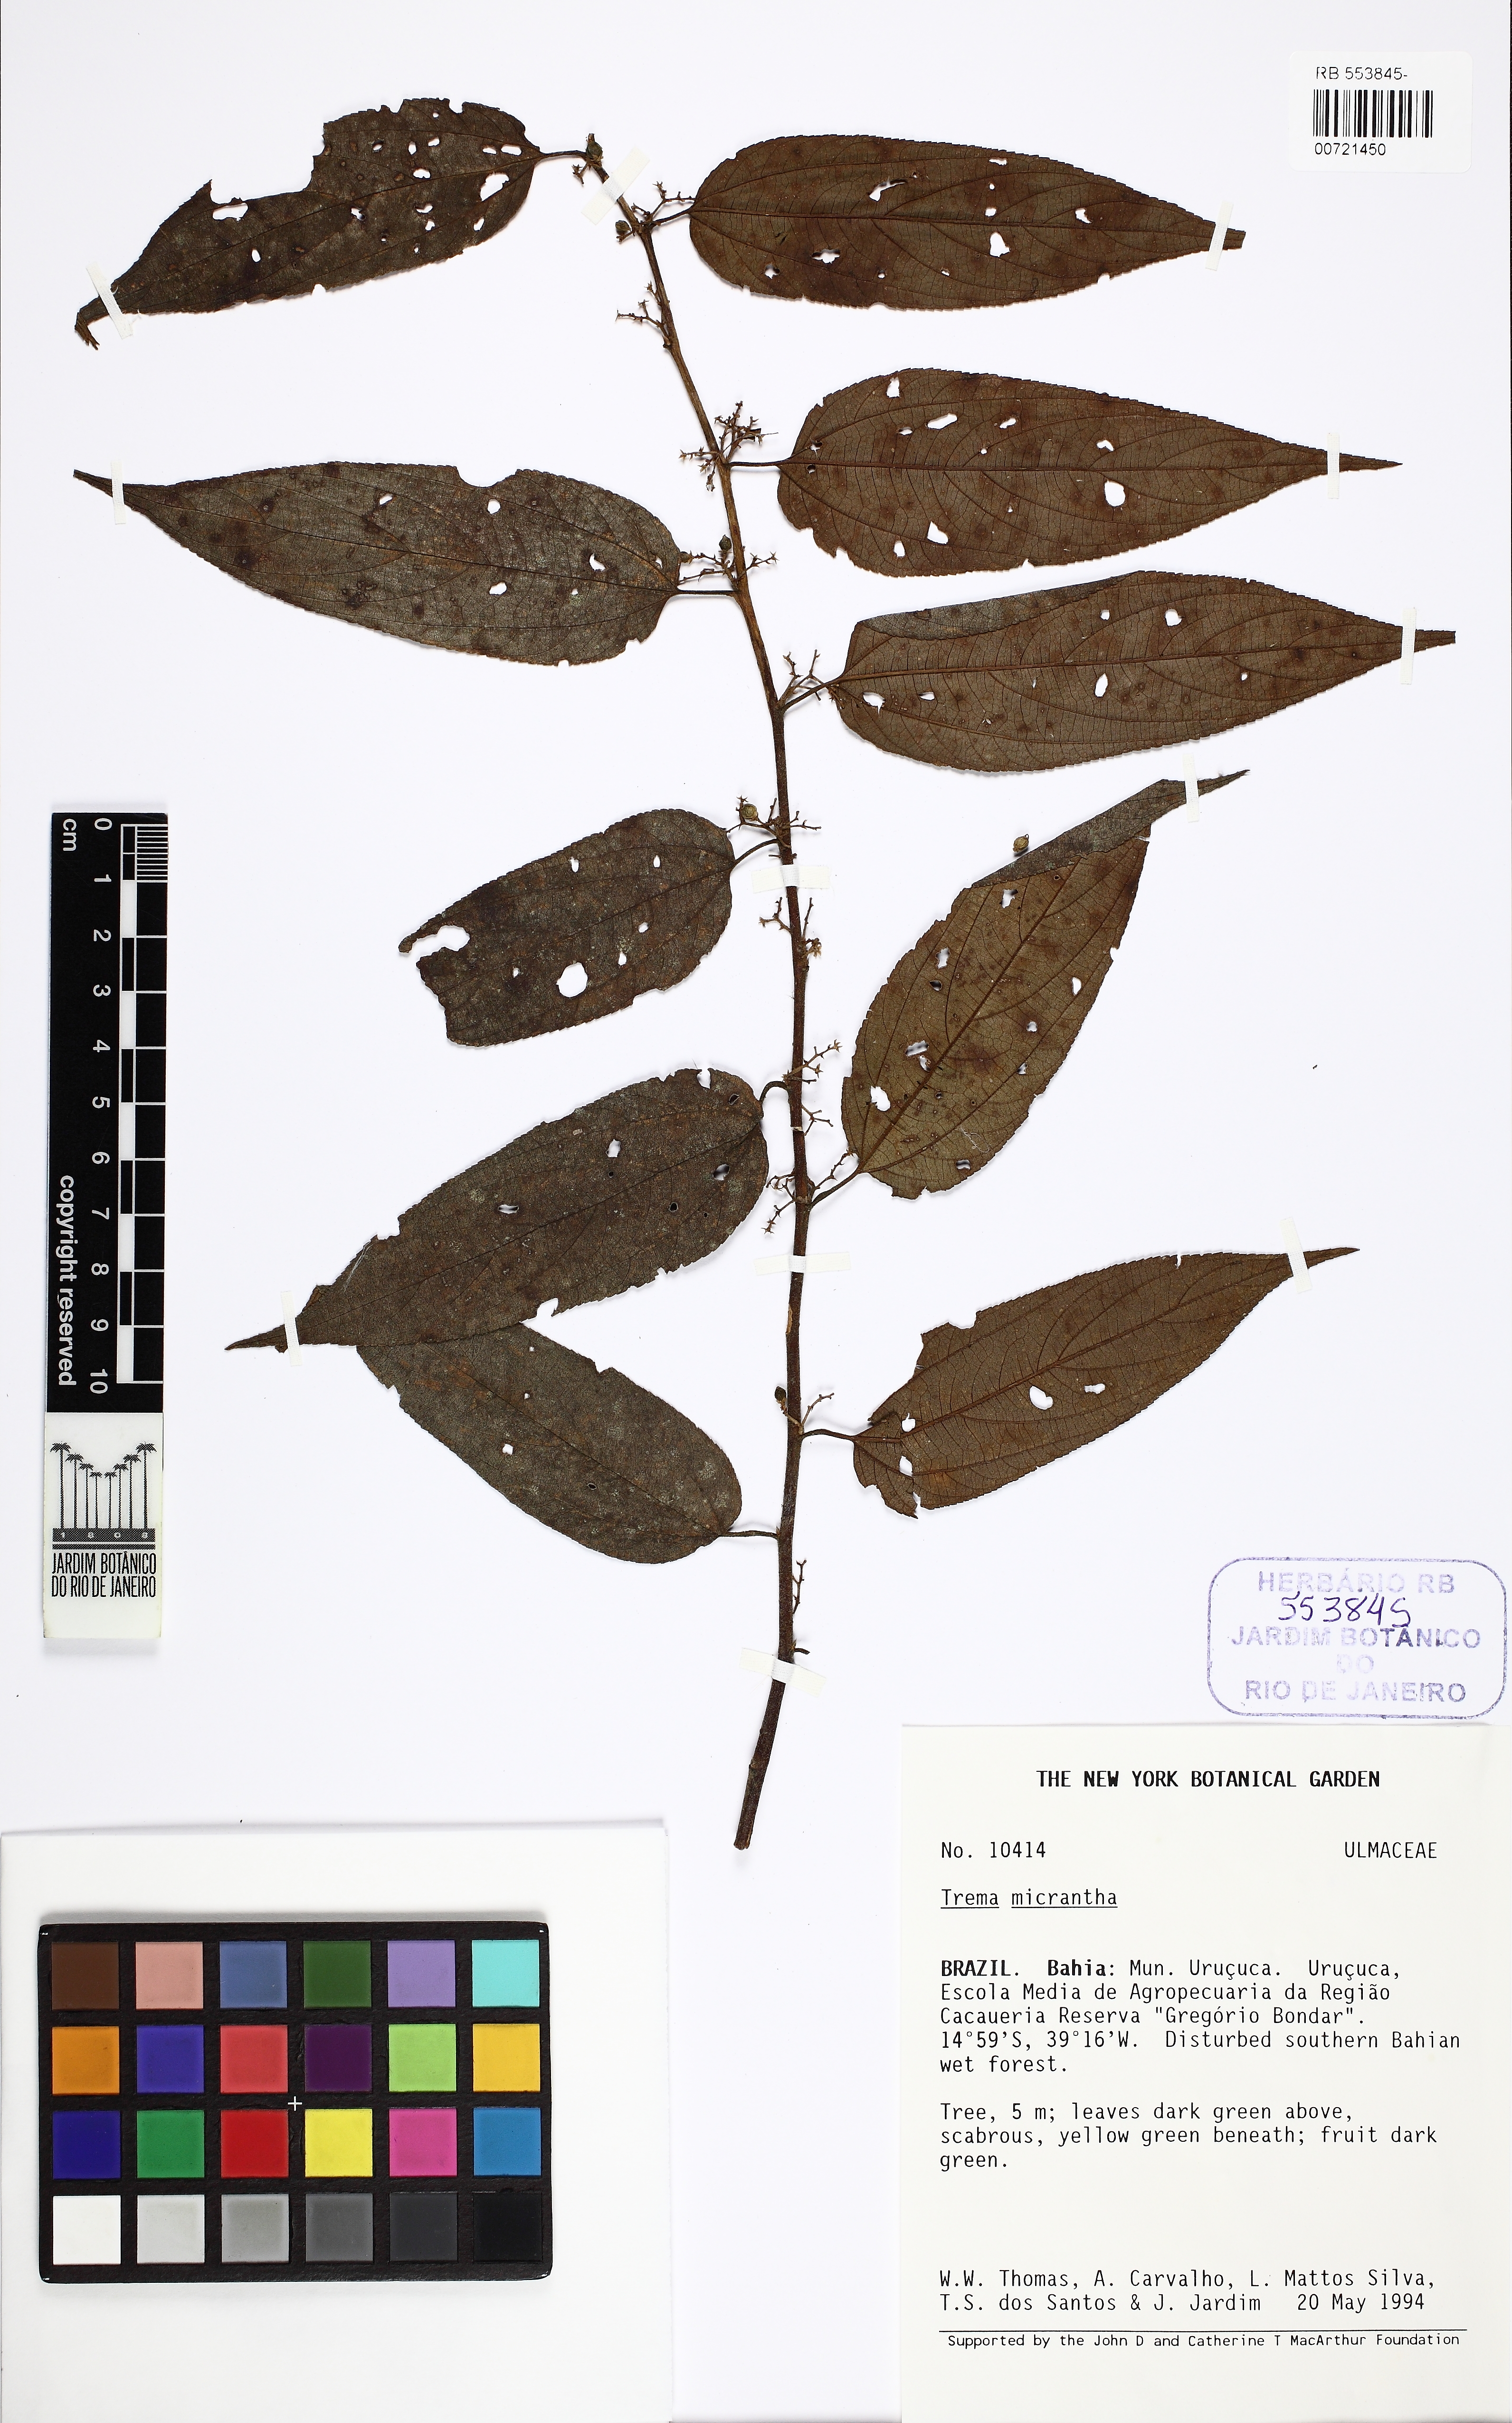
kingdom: Plantae
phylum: Tracheophyta
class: Magnoliopsida
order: Rosales
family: Cannabaceae
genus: Trema
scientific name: Trema micranthum
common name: Jamaican nettletree
